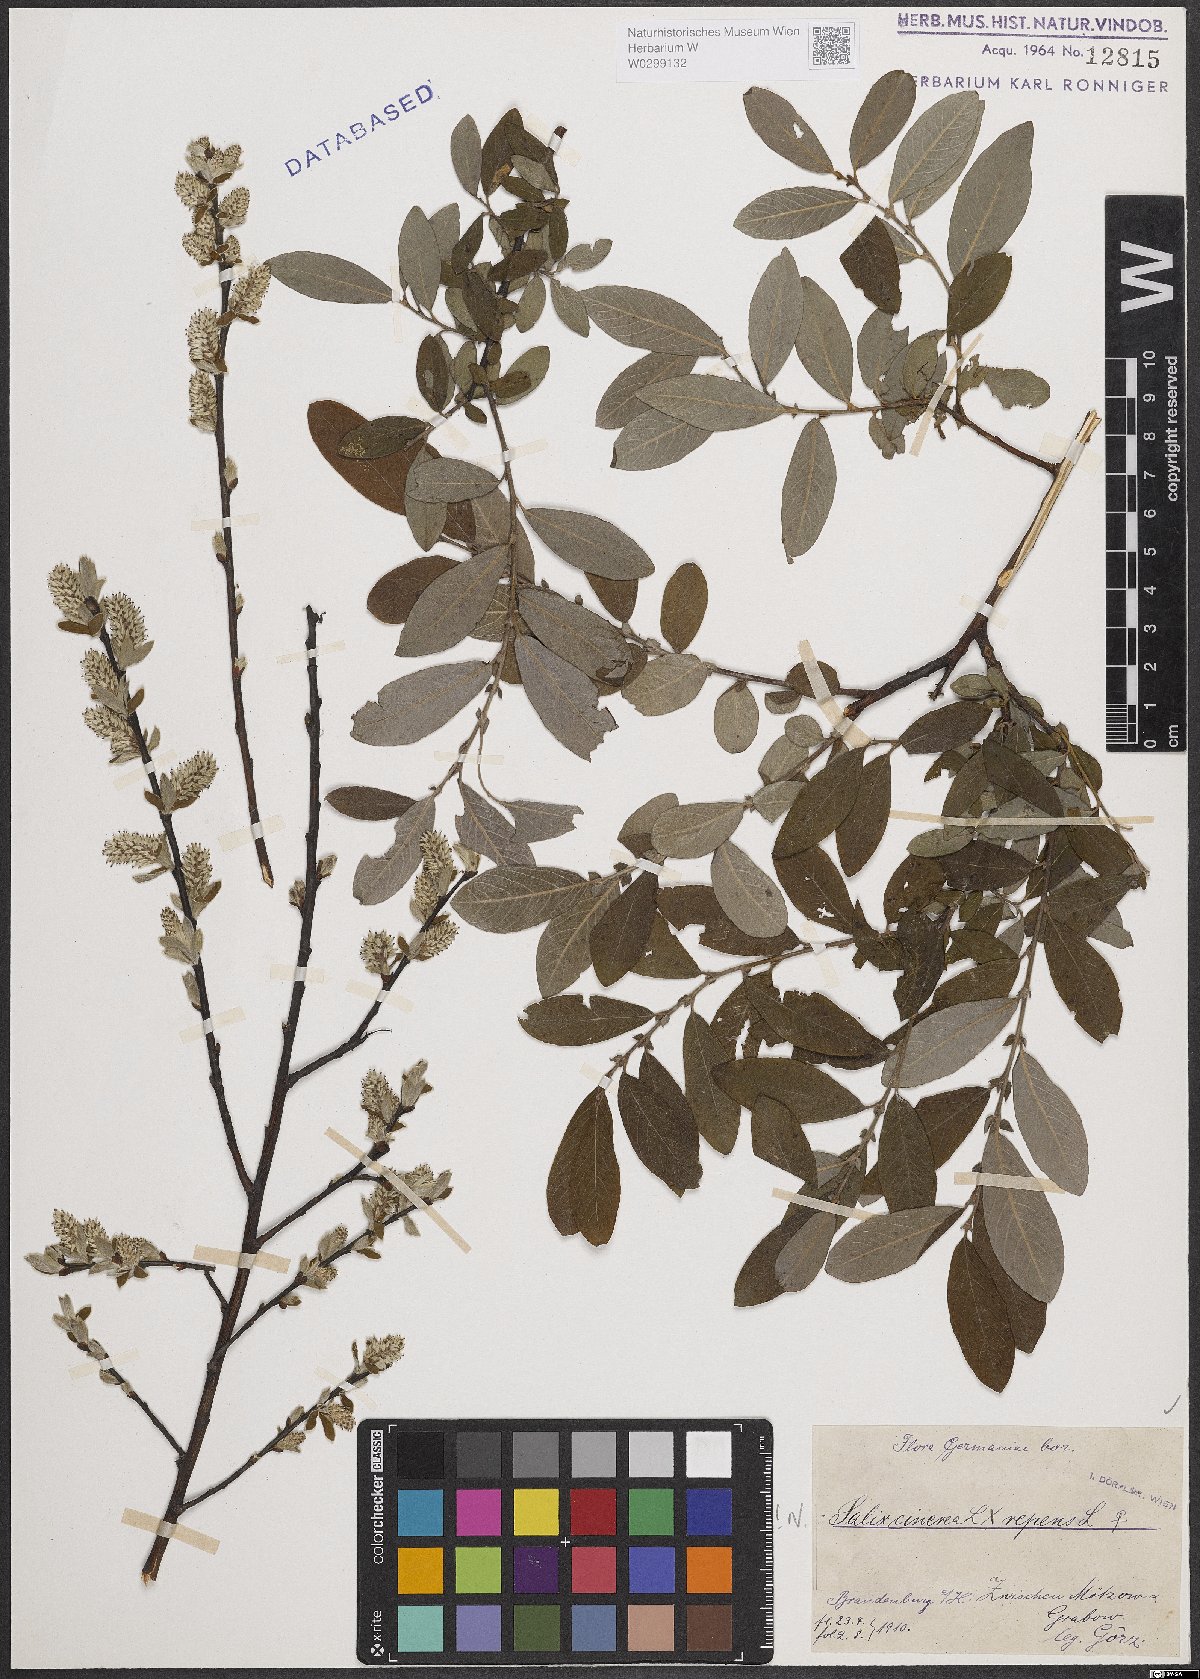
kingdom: Plantae
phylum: Tracheophyta
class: Magnoliopsida
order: Malpighiales
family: Salicaceae
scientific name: Salicaceae
